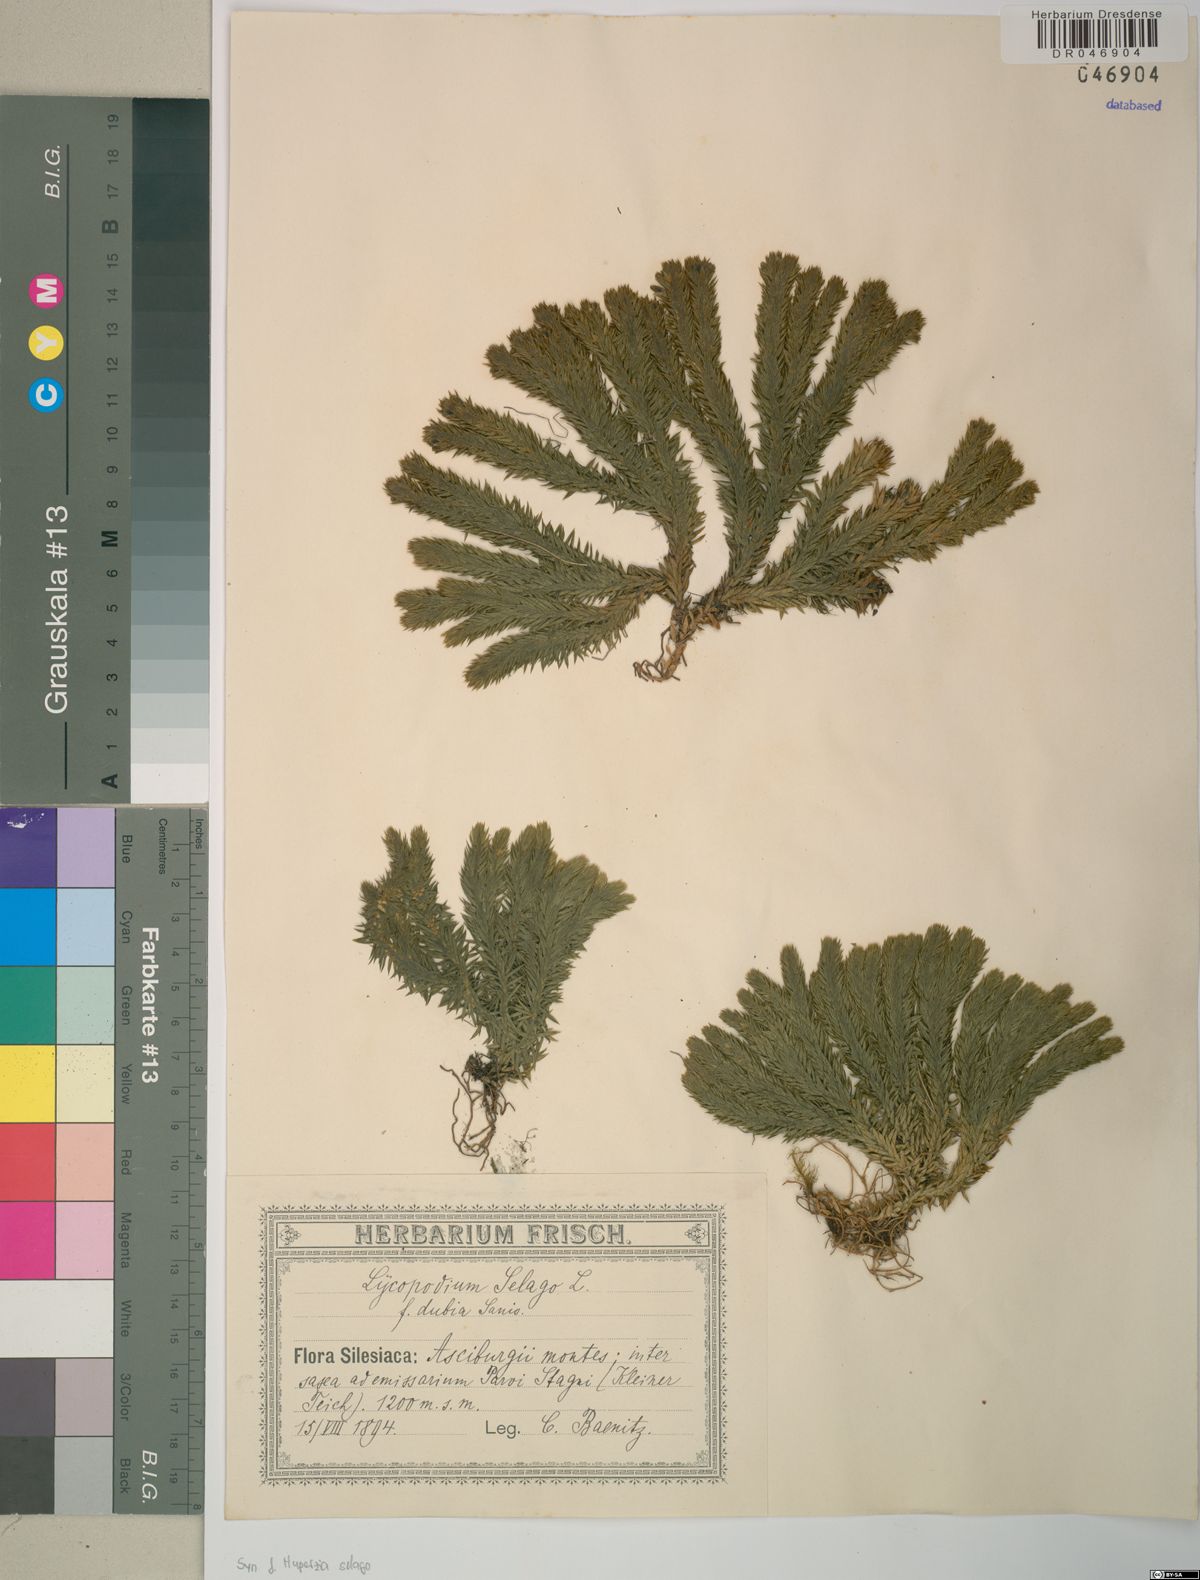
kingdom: Plantae
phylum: Tracheophyta
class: Lycopodiopsida
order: Lycopodiales
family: Lycopodiaceae
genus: Huperzia
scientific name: Huperzia selago
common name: Northern firmoss
